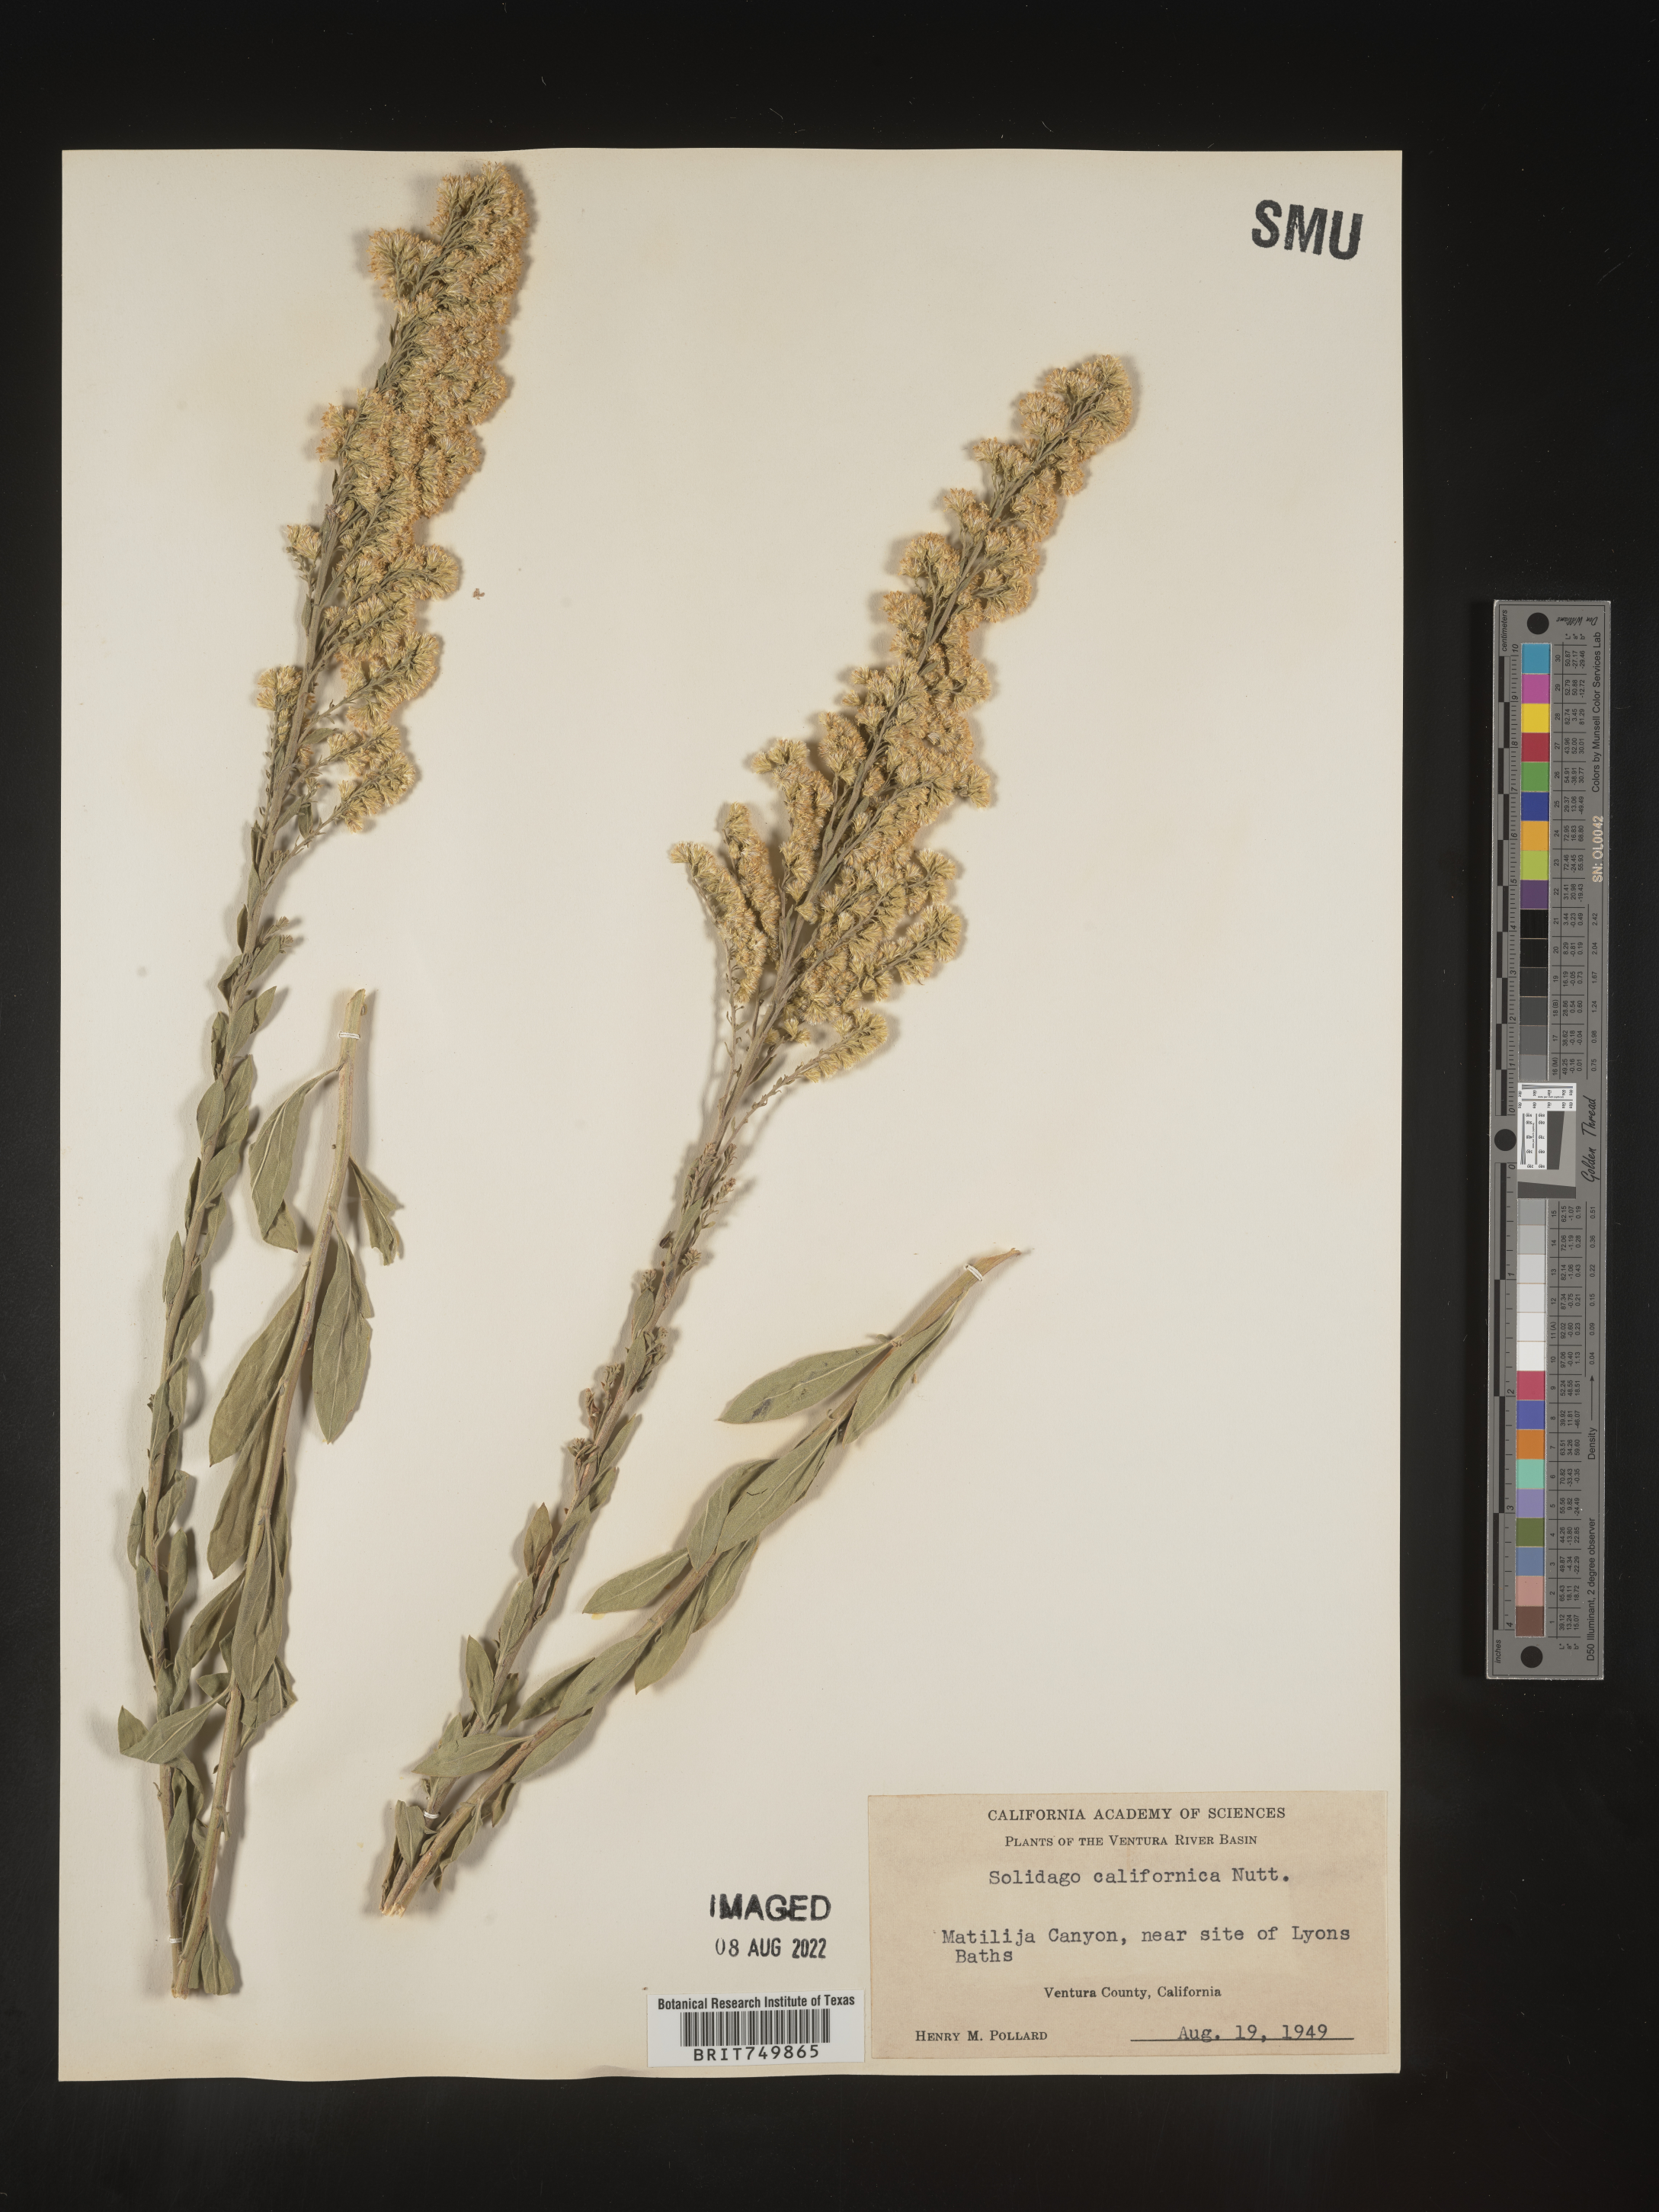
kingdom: Plantae
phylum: Tracheophyta
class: Magnoliopsida
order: Asterales
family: Asteraceae
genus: Solidago
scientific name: Solidago californica
